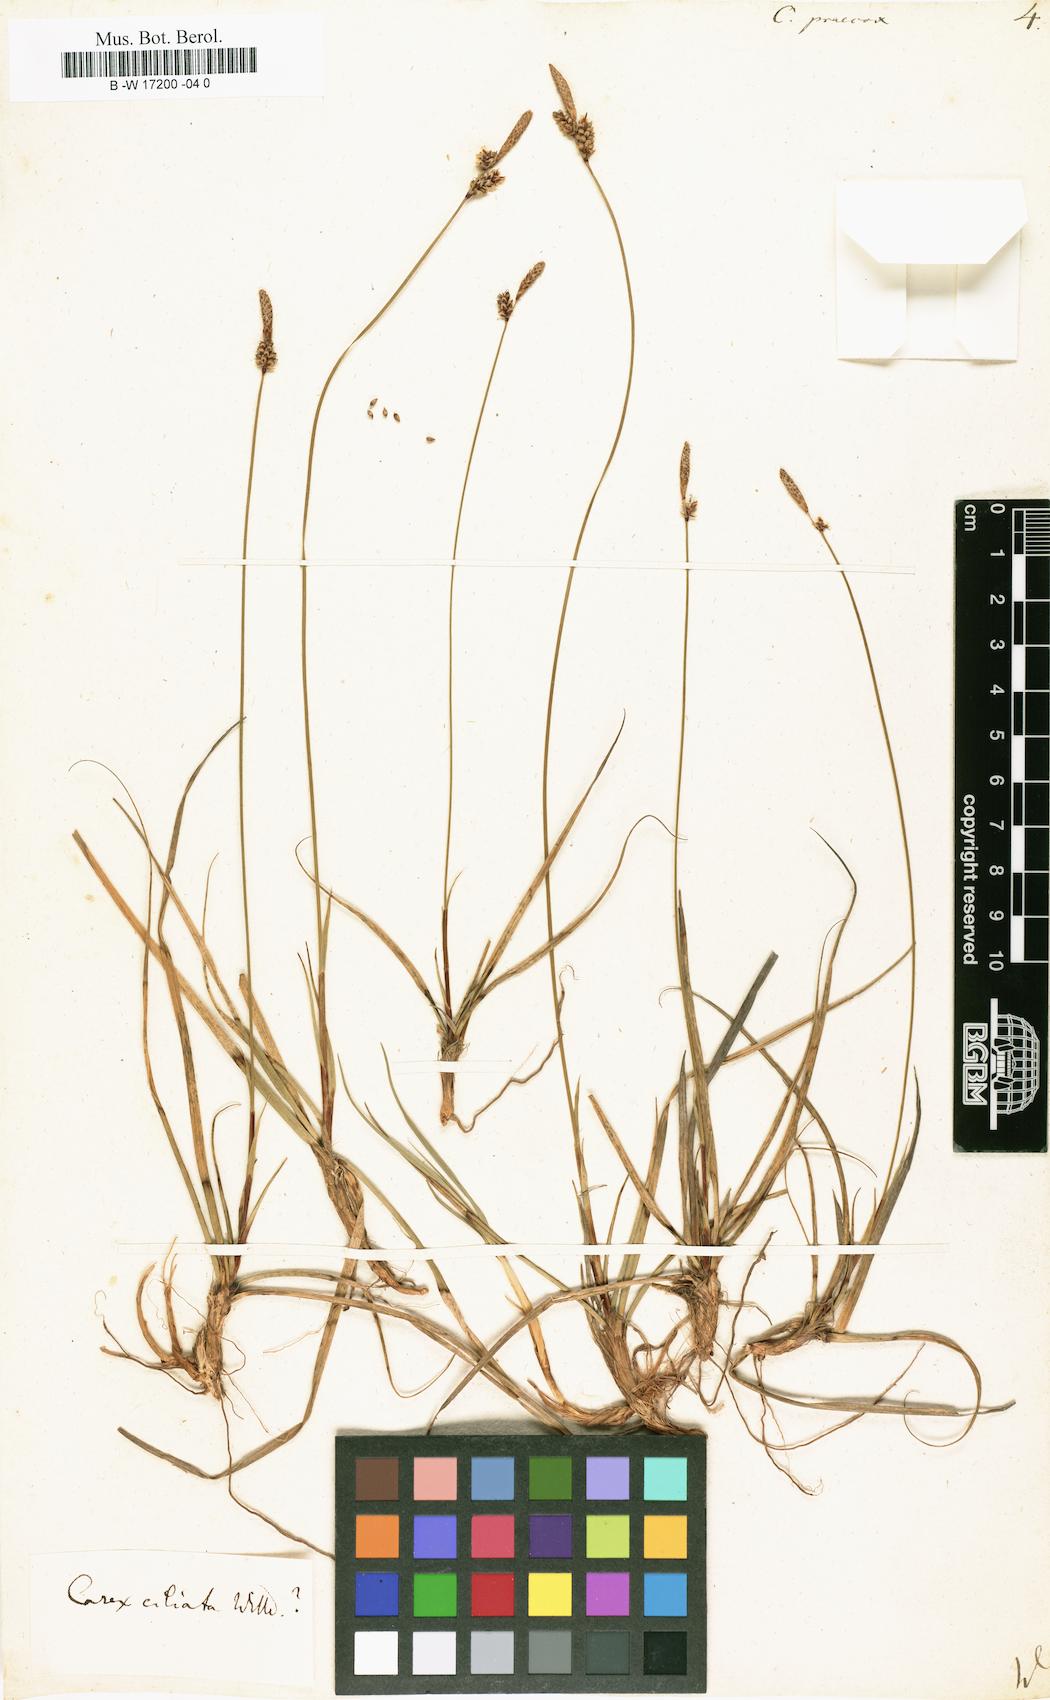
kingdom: Plantae
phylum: Tracheophyta
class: Liliopsida
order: Poales
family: Cyperaceae
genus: Carex
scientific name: Carex praecox
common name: Early sedge
